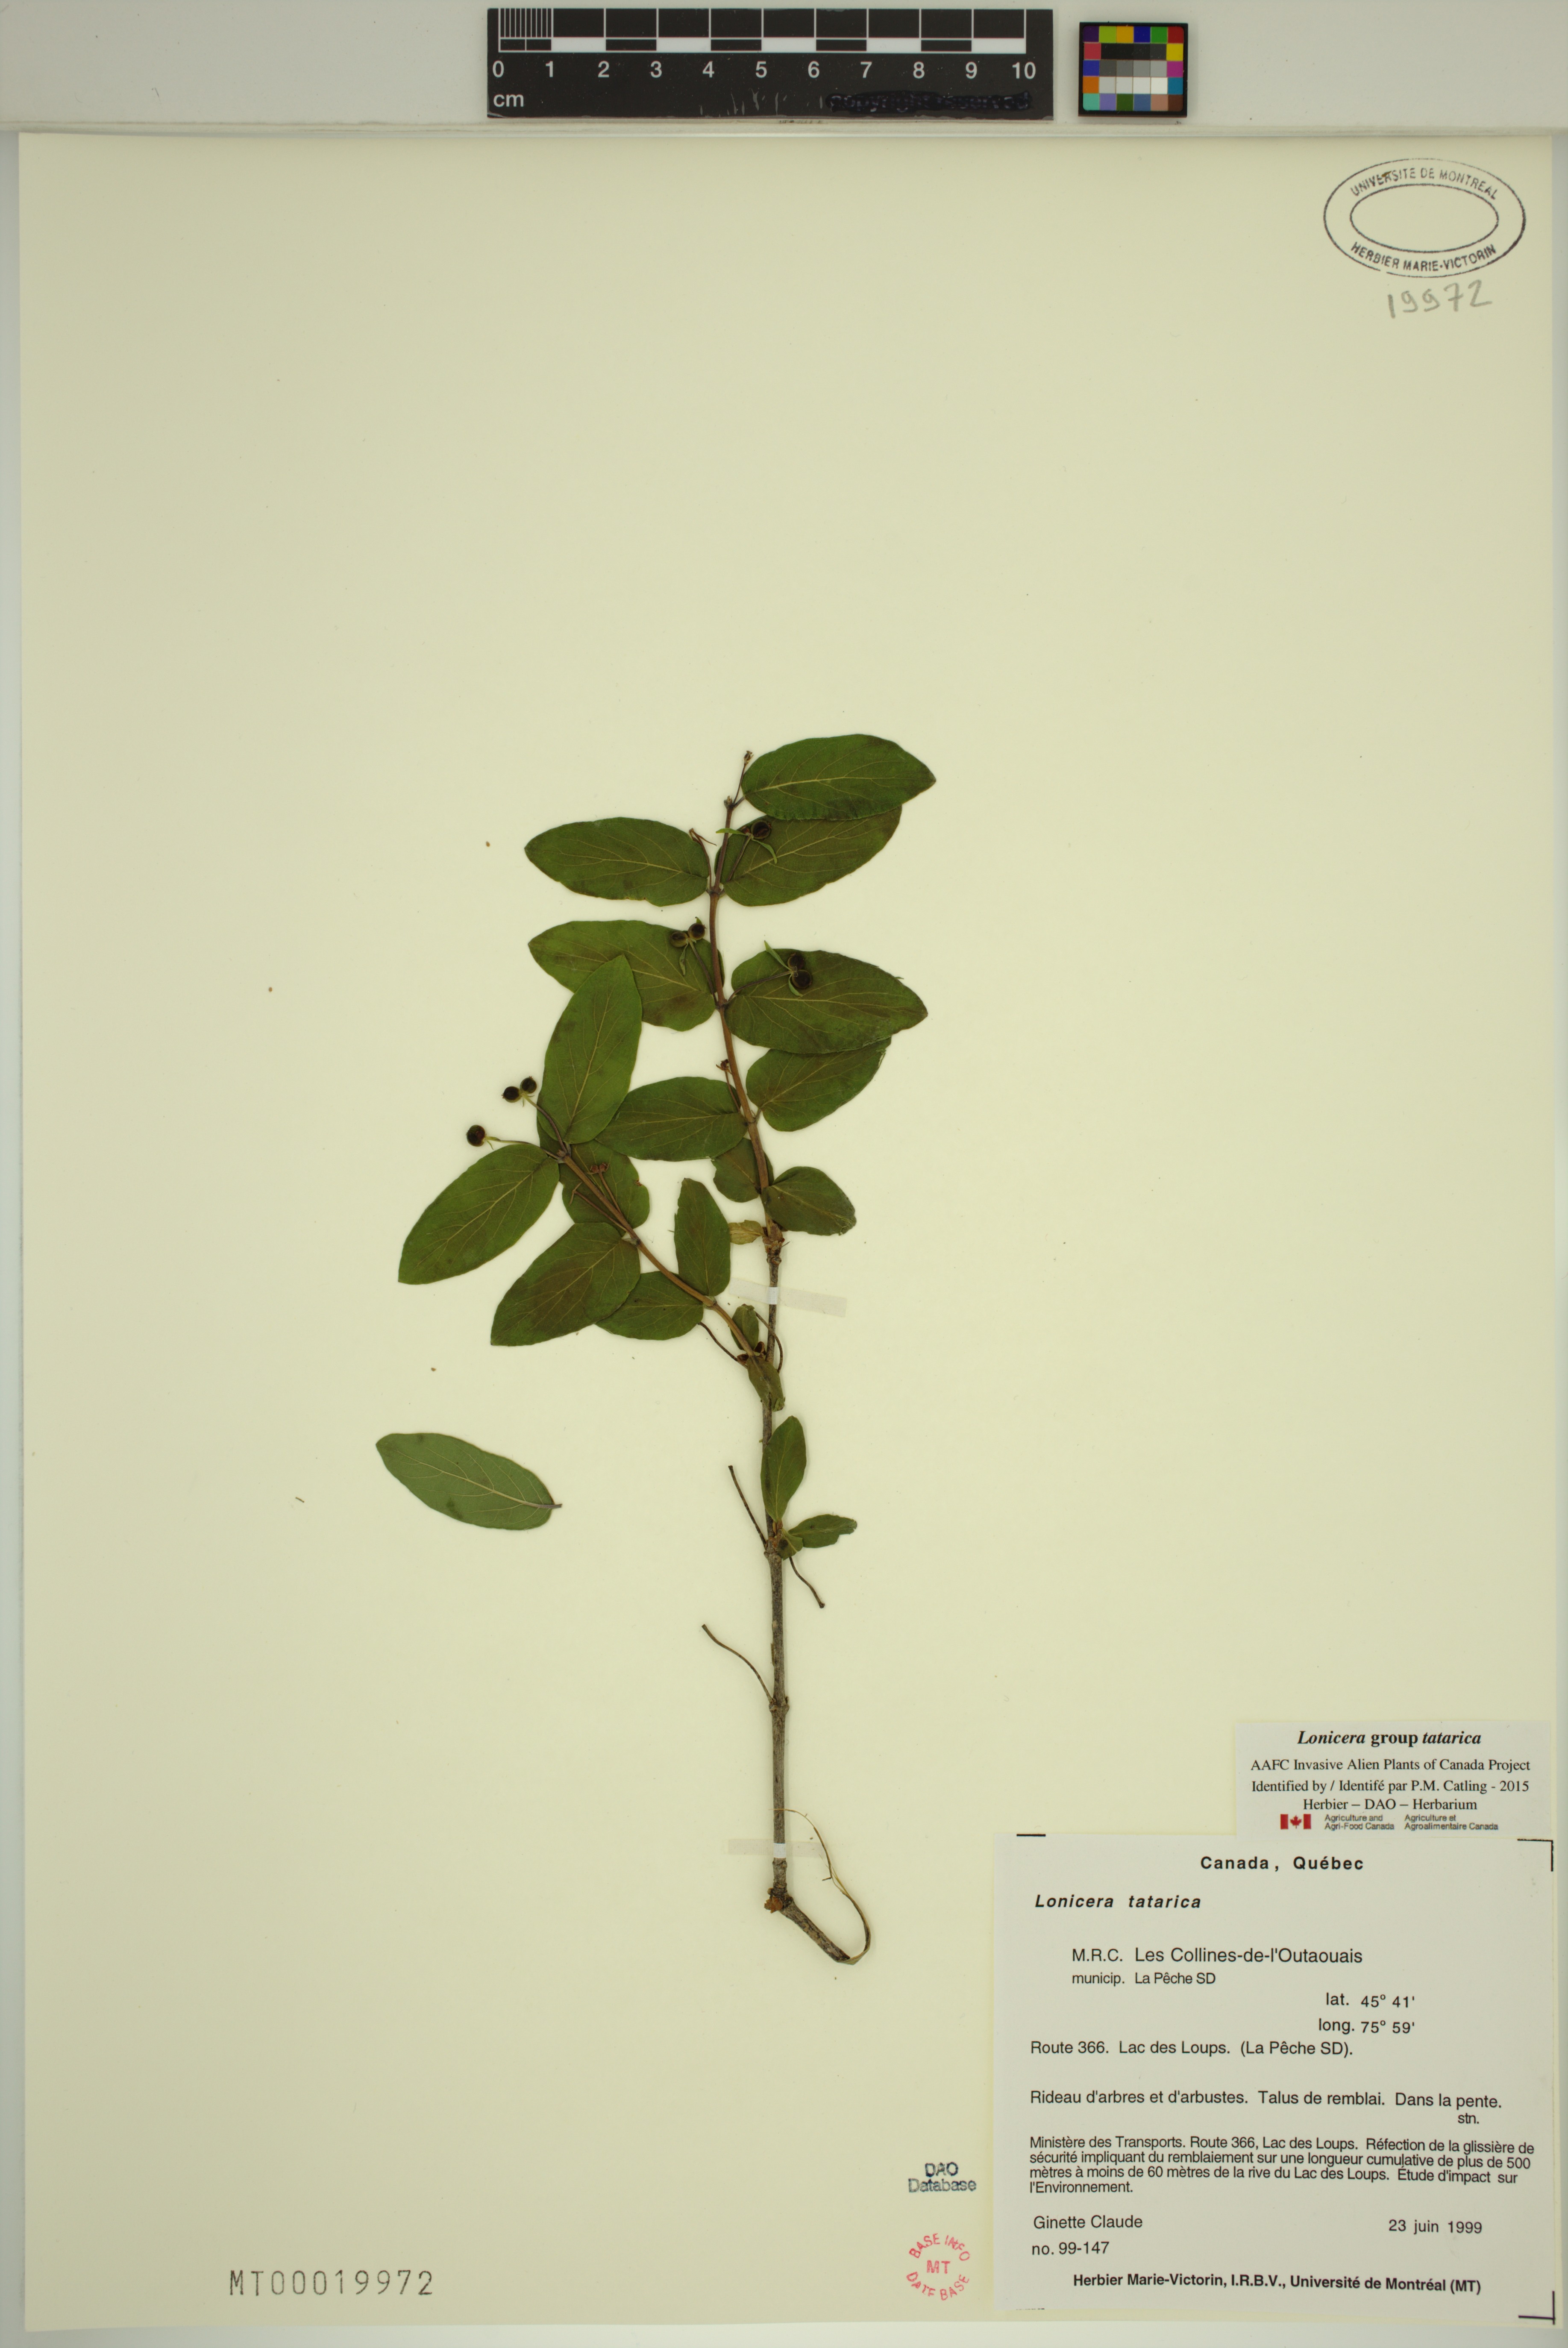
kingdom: Plantae
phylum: Tracheophyta
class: Magnoliopsida
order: Dipsacales
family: Caprifoliaceae
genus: Lonicera
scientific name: Lonicera tatarica
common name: Tatarian honeysuckle
